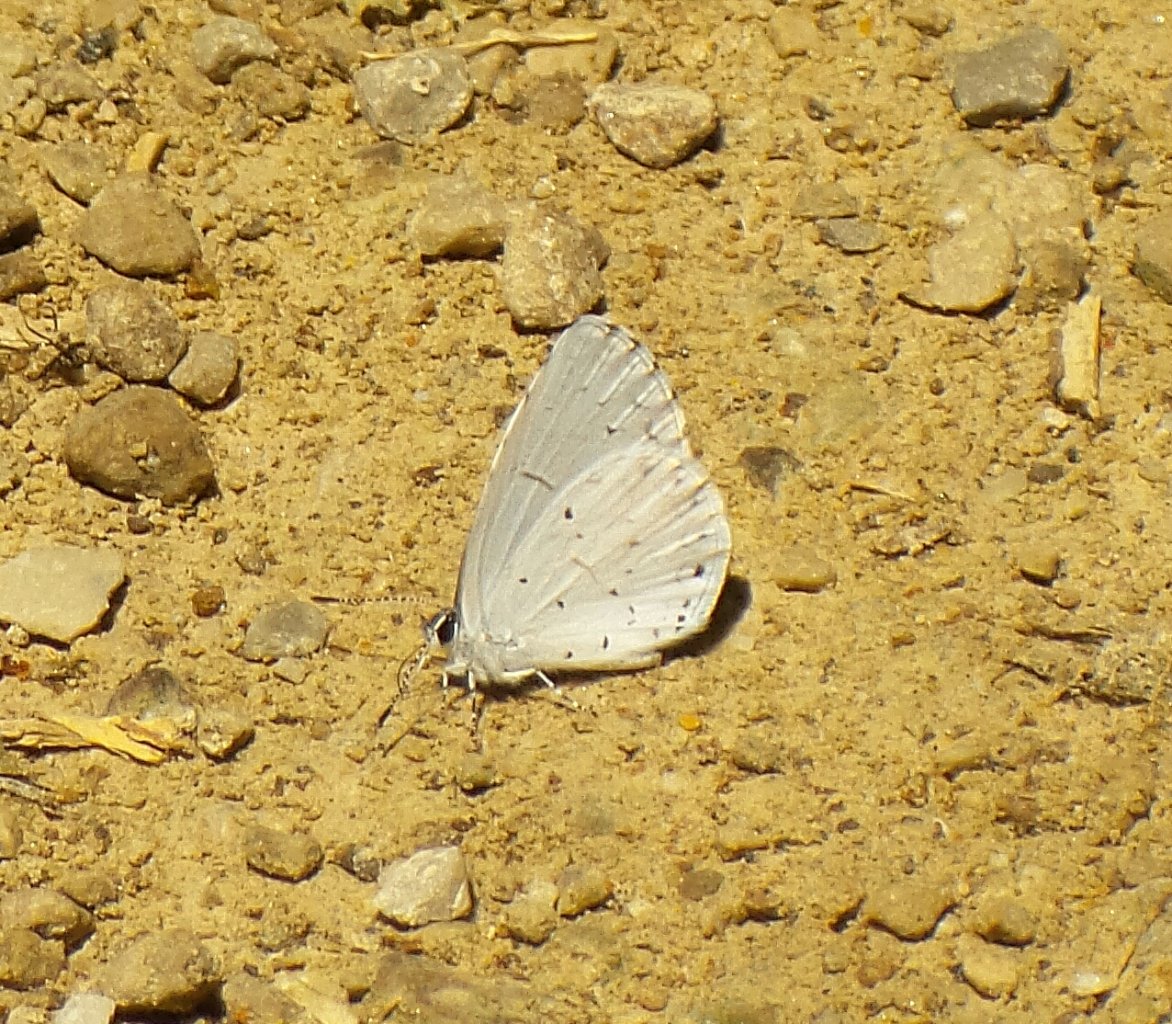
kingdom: Animalia
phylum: Arthropoda
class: Insecta
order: Lepidoptera
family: Lycaenidae
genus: Cyaniris
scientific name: Cyaniris neglecta
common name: Summer Azure
